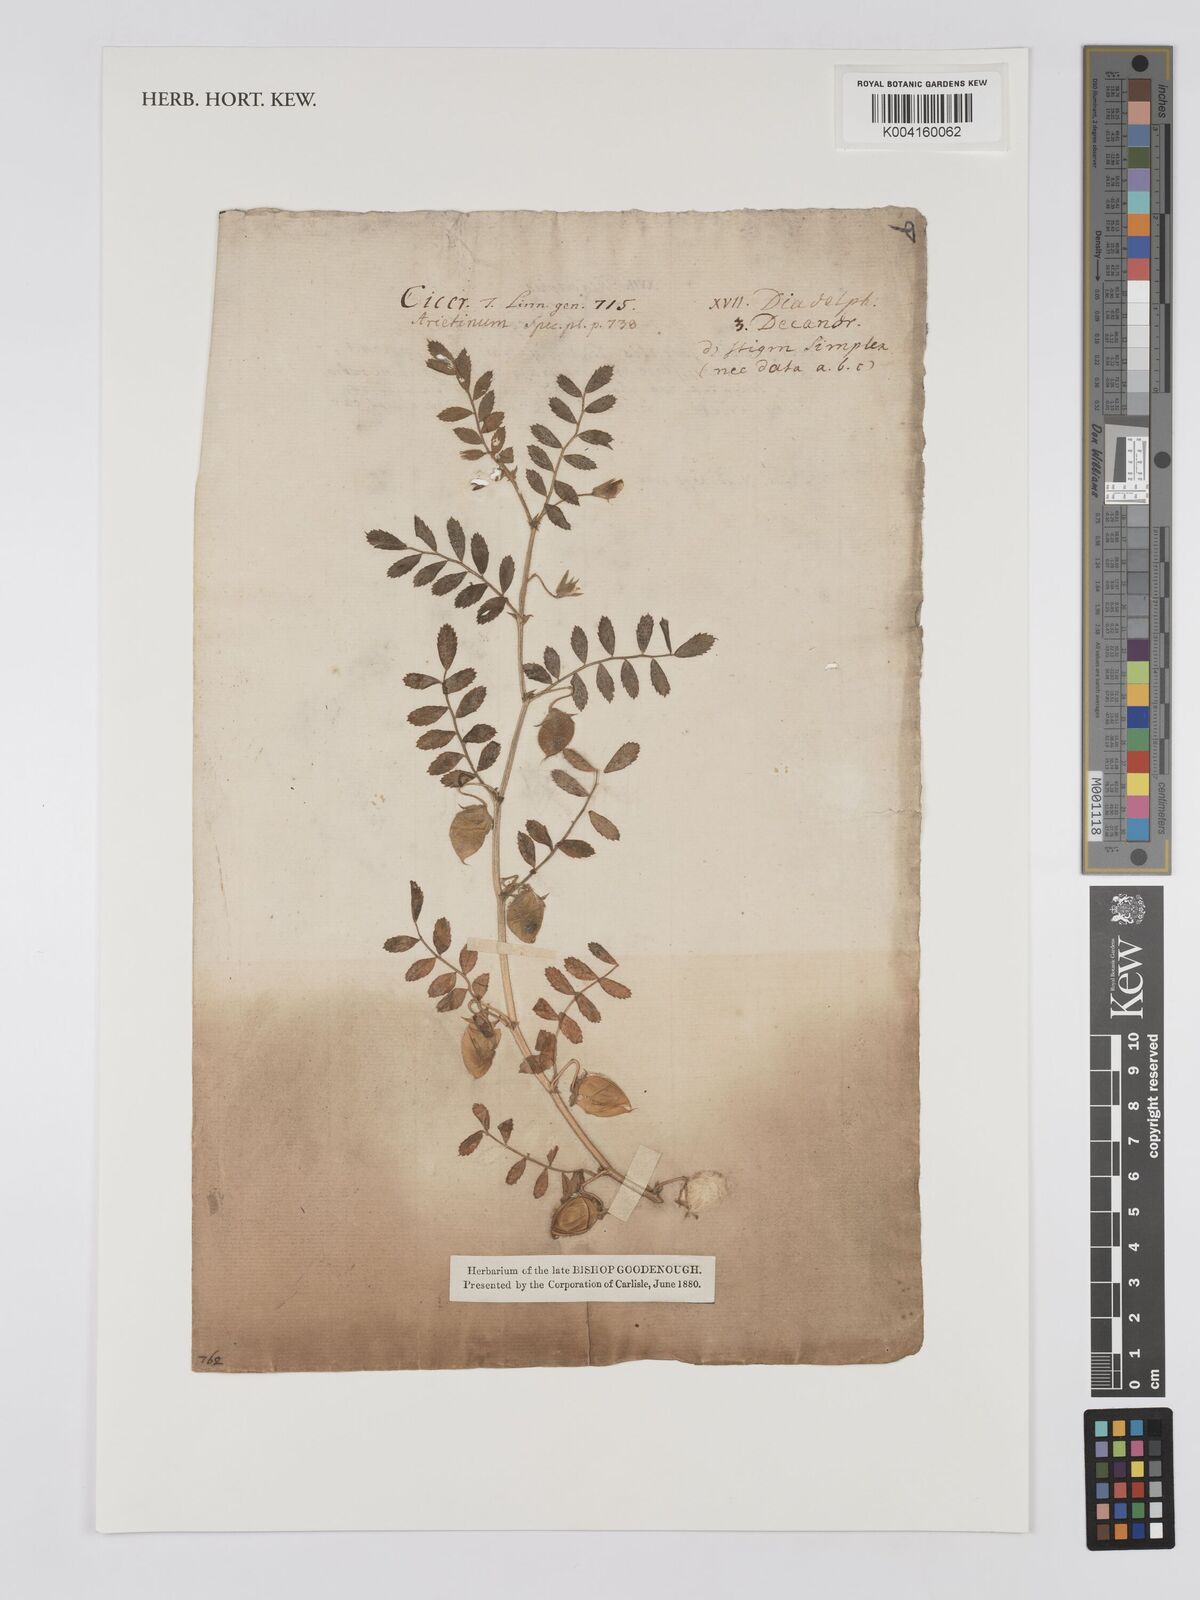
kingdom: Plantae
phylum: Tracheophyta
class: Magnoliopsida
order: Fabales
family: Fabaceae
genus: Cicer
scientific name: Cicer arietinum
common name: Chick pea
